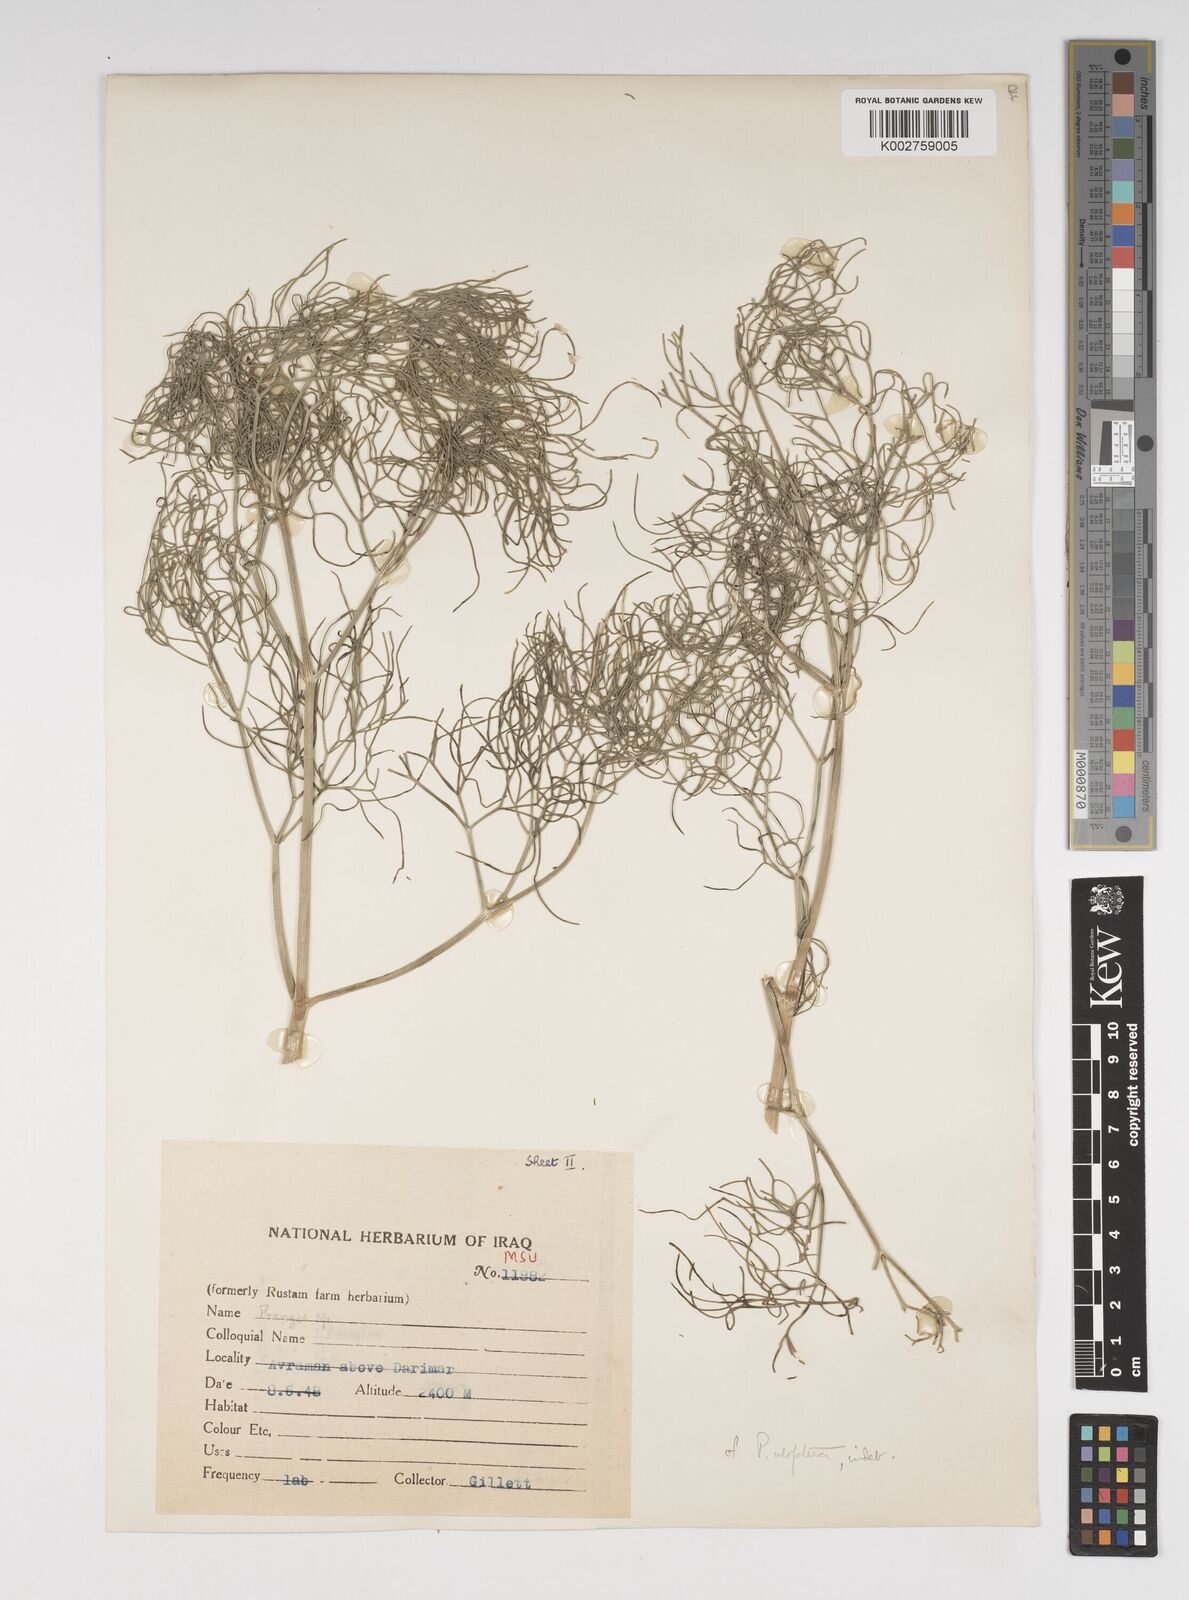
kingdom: Plantae
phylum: Tracheophyta
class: Magnoliopsida
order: Apiales
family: Apiaceae
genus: Prangos
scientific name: Prangos uloptera
